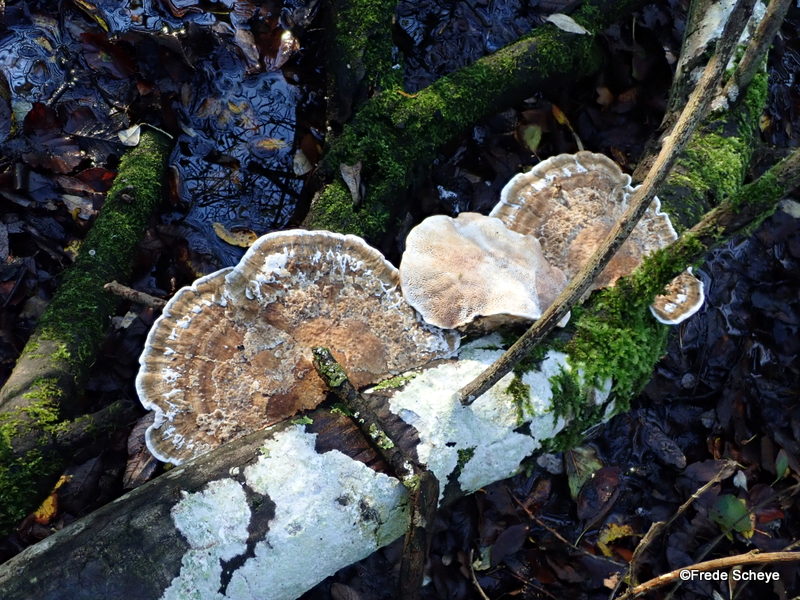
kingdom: Fungi
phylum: Basidiomycota
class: Agaricomycetes
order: Polyporales
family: Polyporaceae
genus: Daedaleopsis
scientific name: Daedaleopsis confragosa
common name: rødmende læderporesvamp
